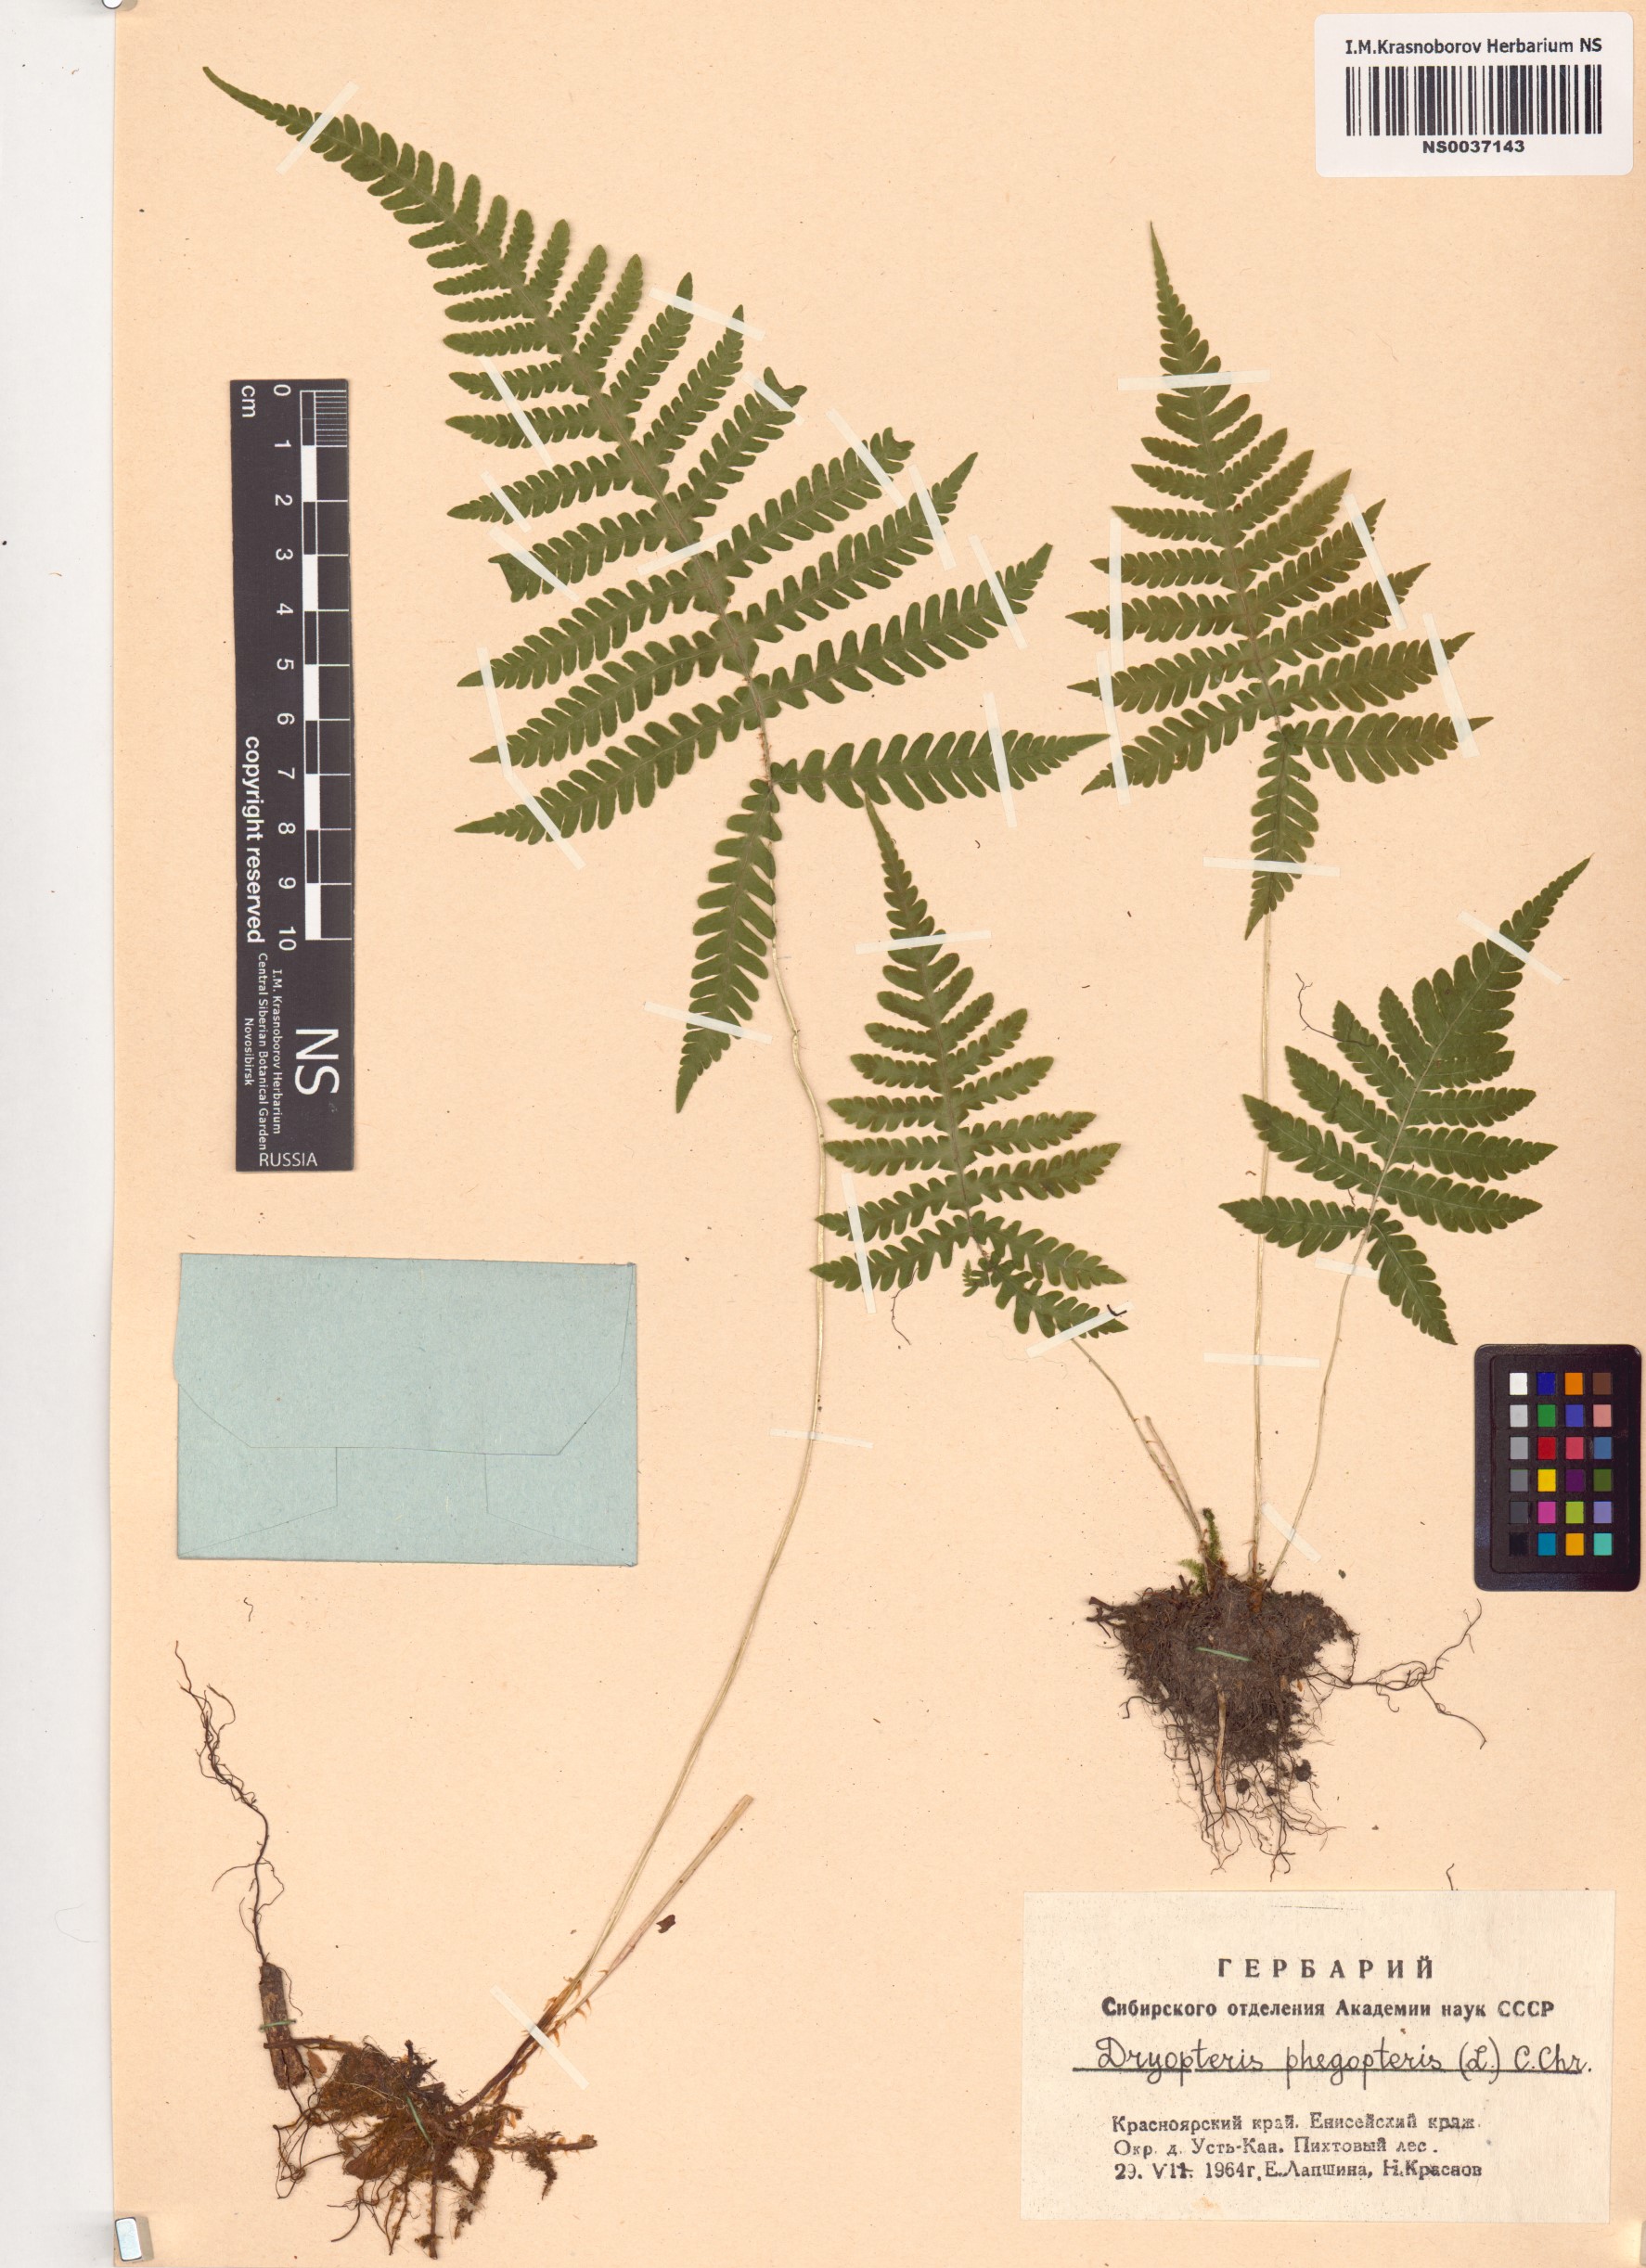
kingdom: Plantae
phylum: Tracheophyta
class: Polypodiopsida
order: Polypodiales
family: Thelypteridaceae
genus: Phegopteris
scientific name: Phegopteris connectilis
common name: Beech fern
